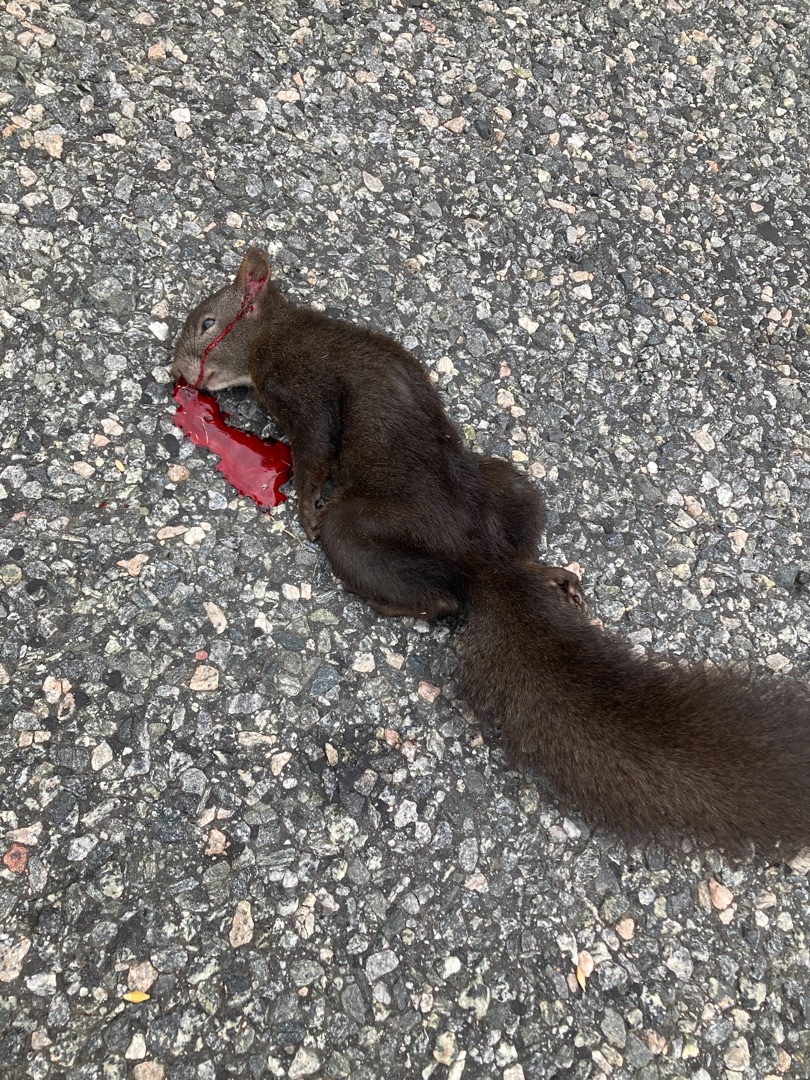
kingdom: Animalia
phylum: Chordata
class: Mammalia
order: Rodentia
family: Sciuridae
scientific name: Sciuridae
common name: Egern
